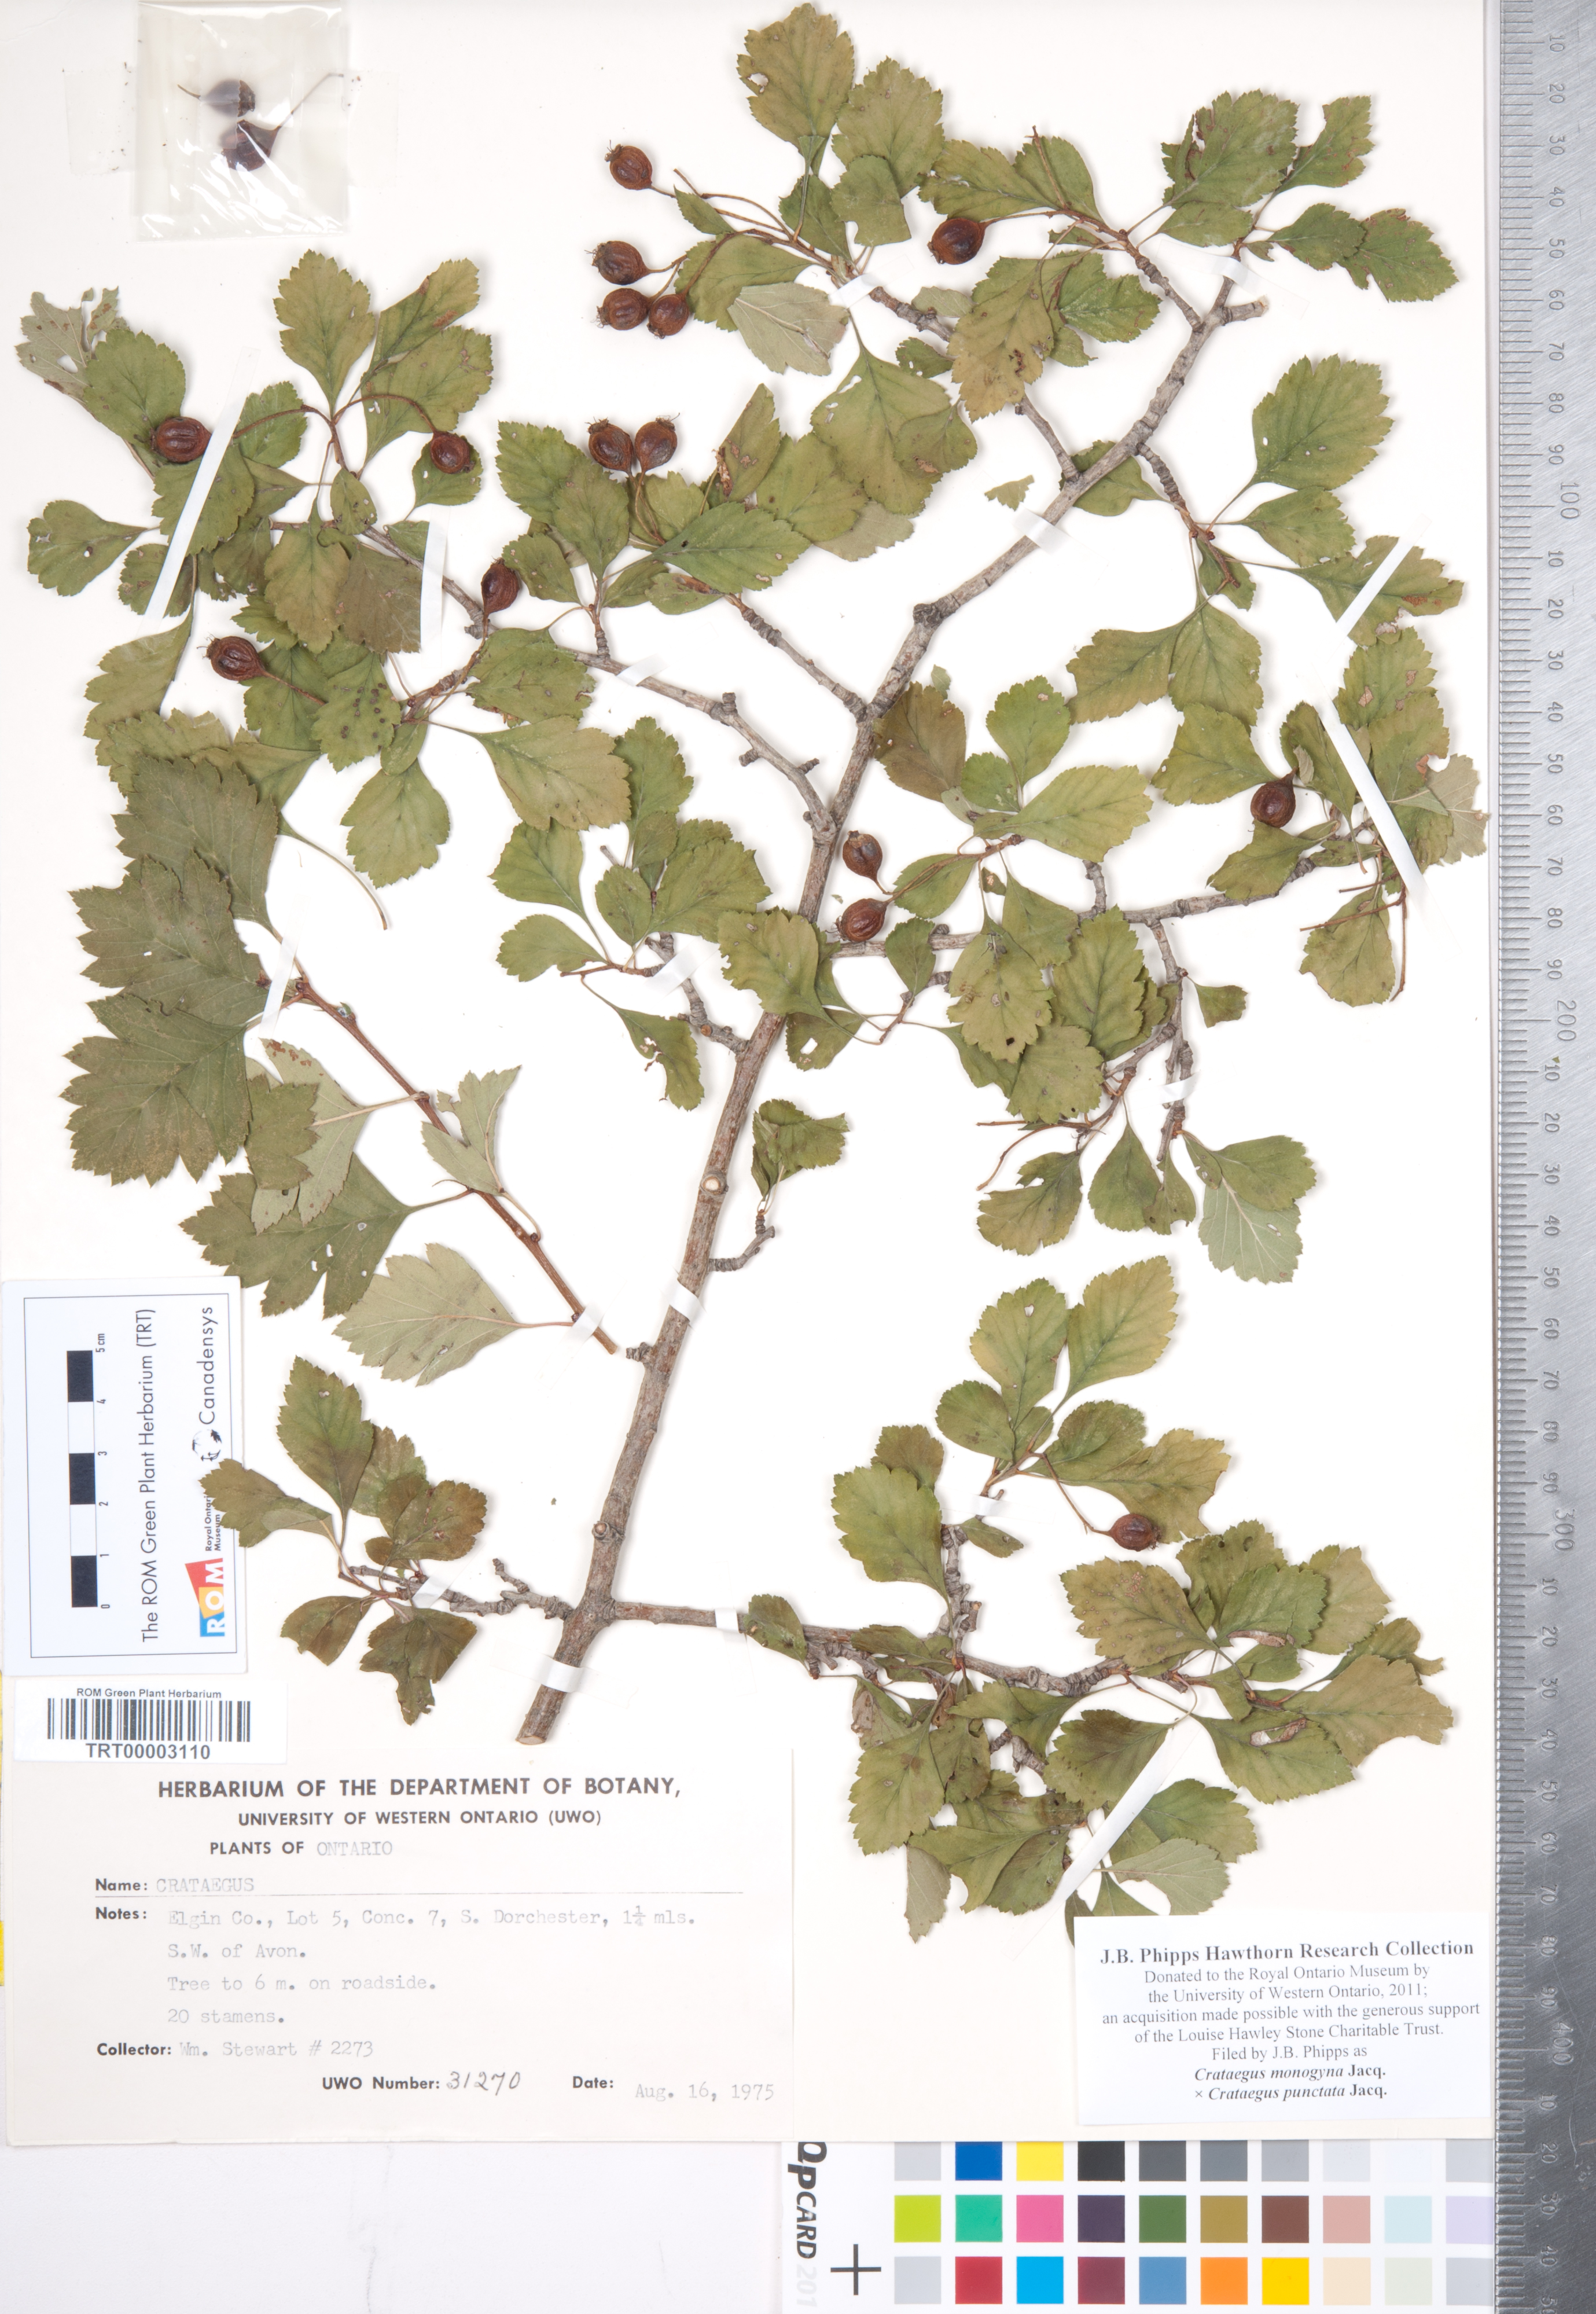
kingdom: Plantae
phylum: Tracheophyta
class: Magnoliopsida
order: Rosales
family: Rosaceae
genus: Crataegus
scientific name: Crataegus monogyna
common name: Hawthorn
